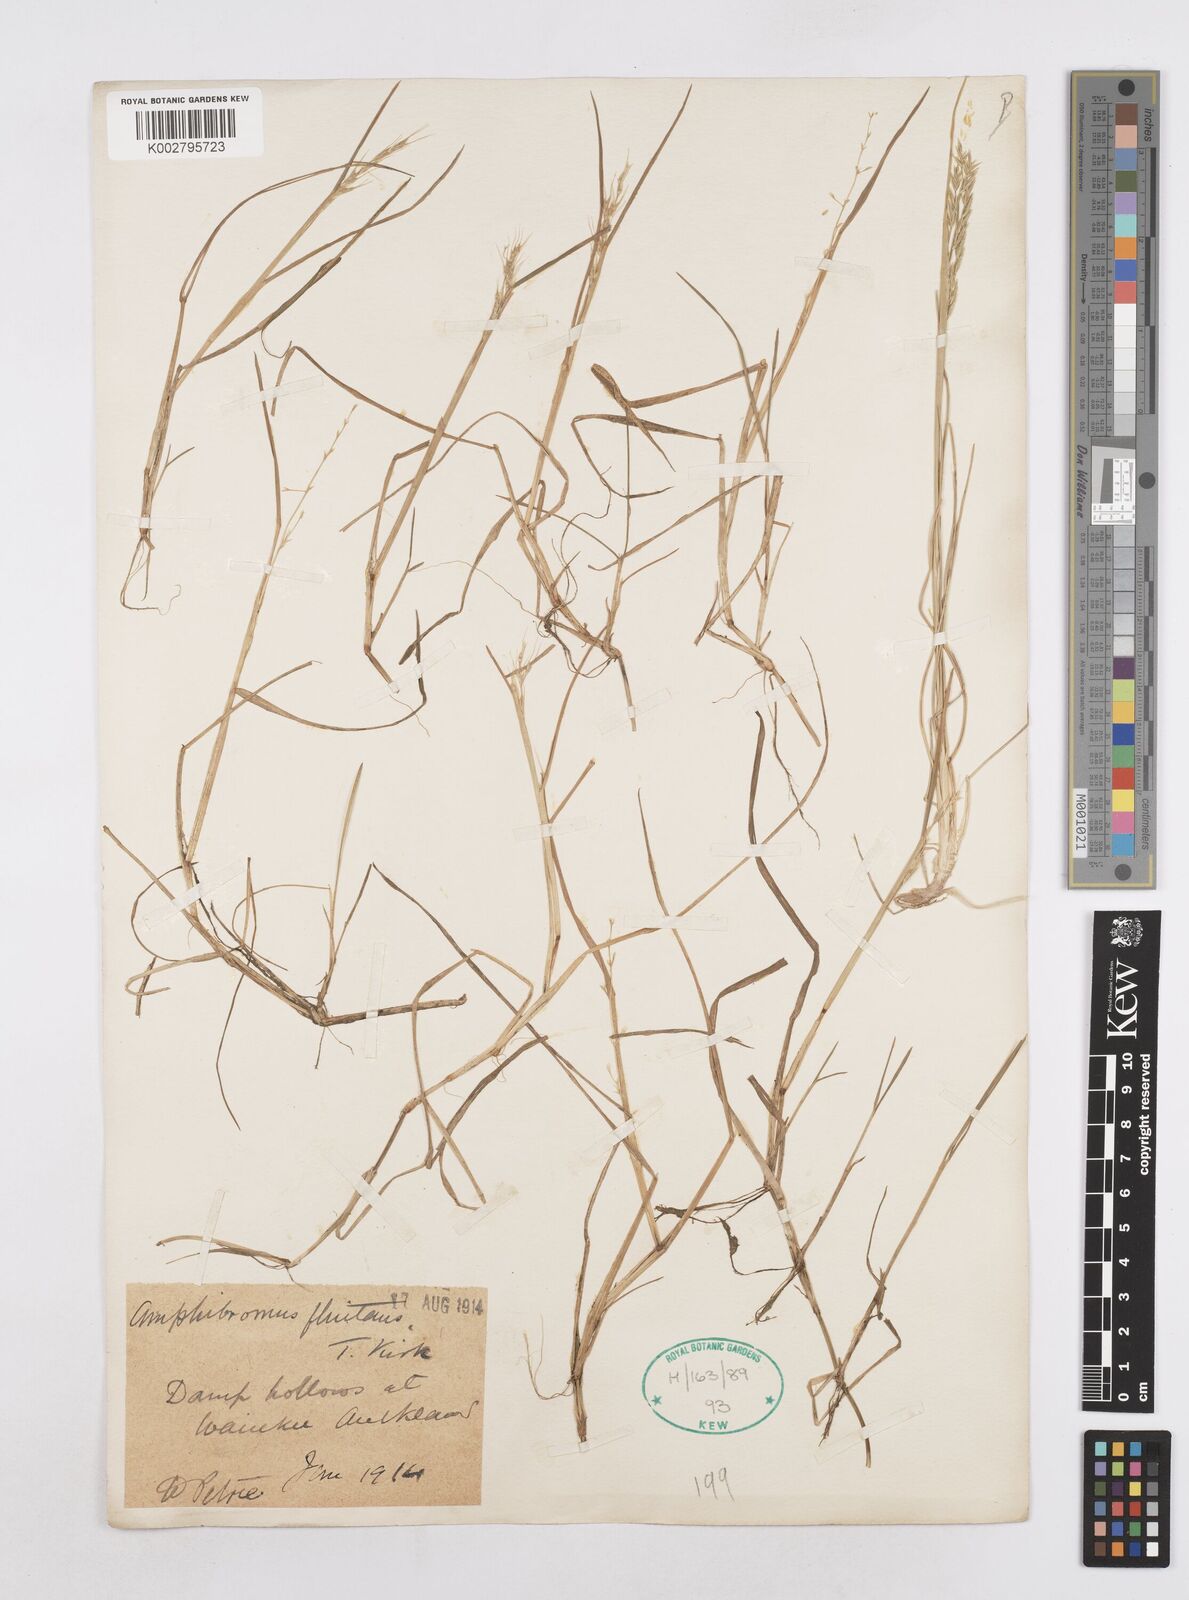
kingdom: Plantae
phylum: Tracheophyta
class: Liliopsida
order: Poales
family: Poaceae
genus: Helictotrichon
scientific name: Helictotrichon
